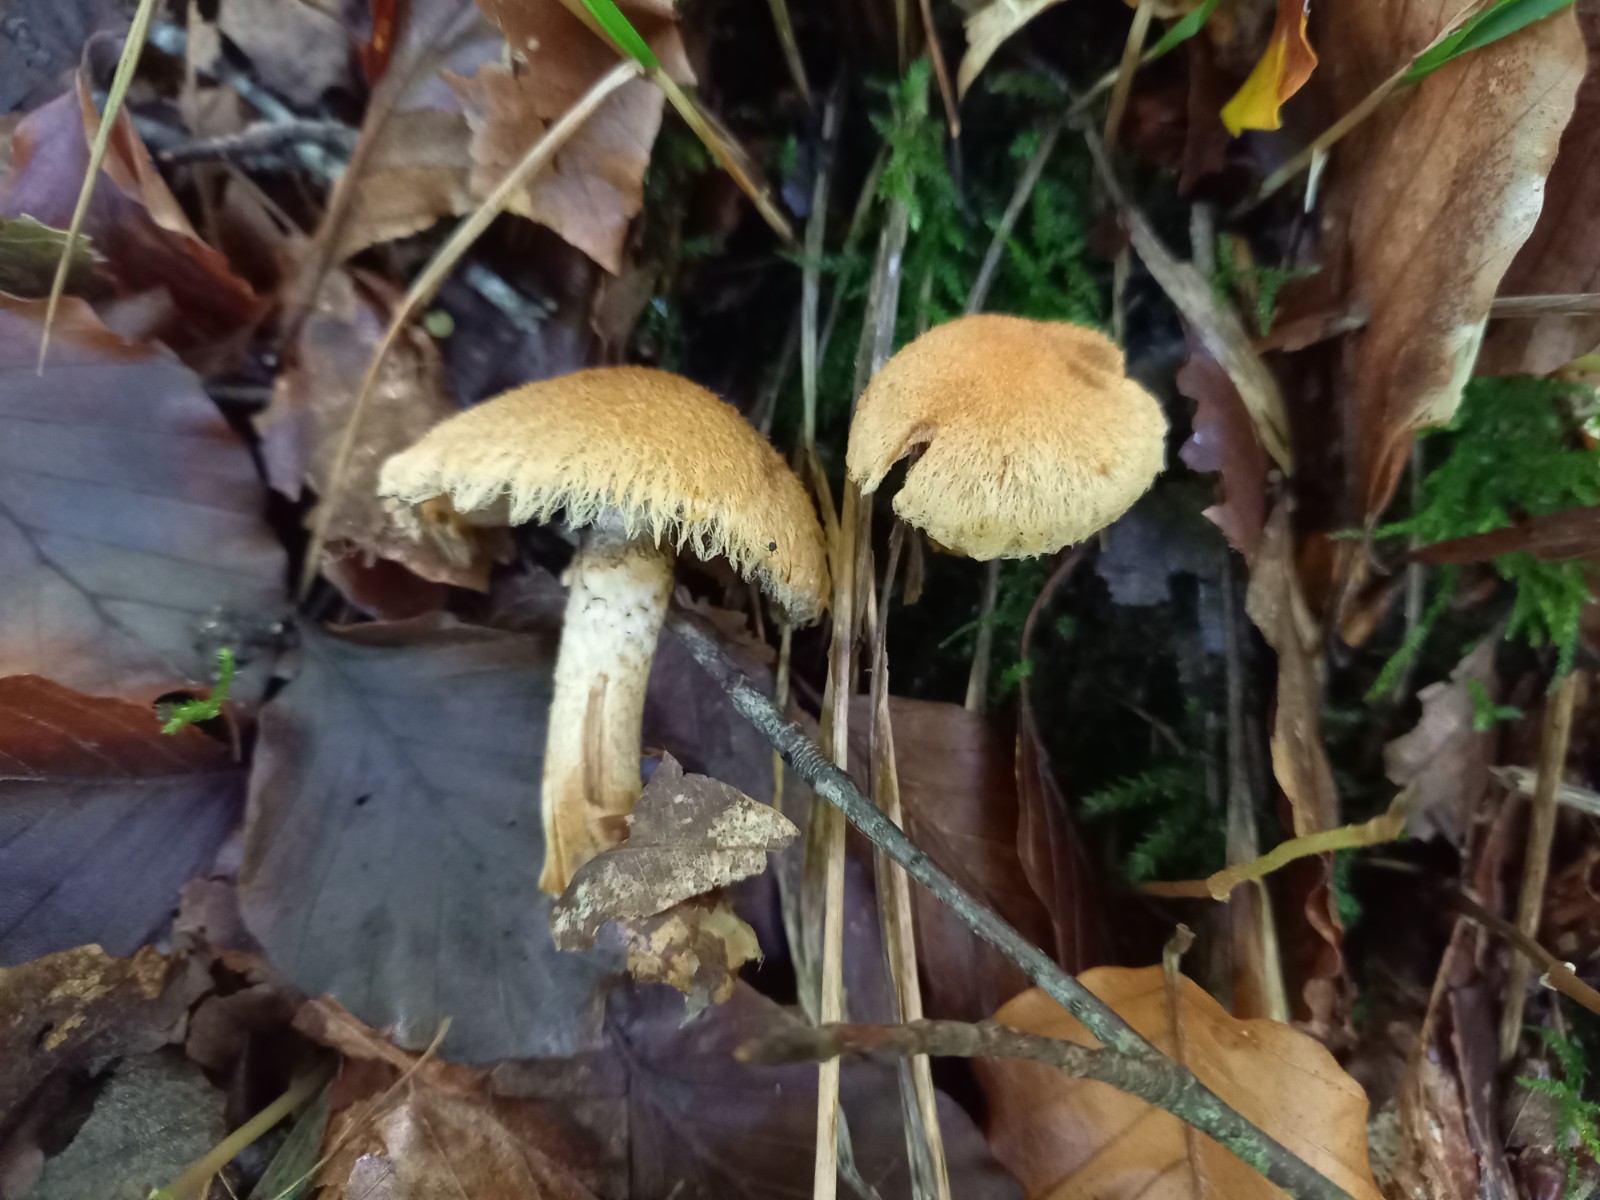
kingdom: Fungi
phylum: Basidiomycota
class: Agaricomycetes
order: Agaricales
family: Psathyrellaceae
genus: Lacrymaria
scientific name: Lacrymaria pyrotricha
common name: ildhåret mørkhat
